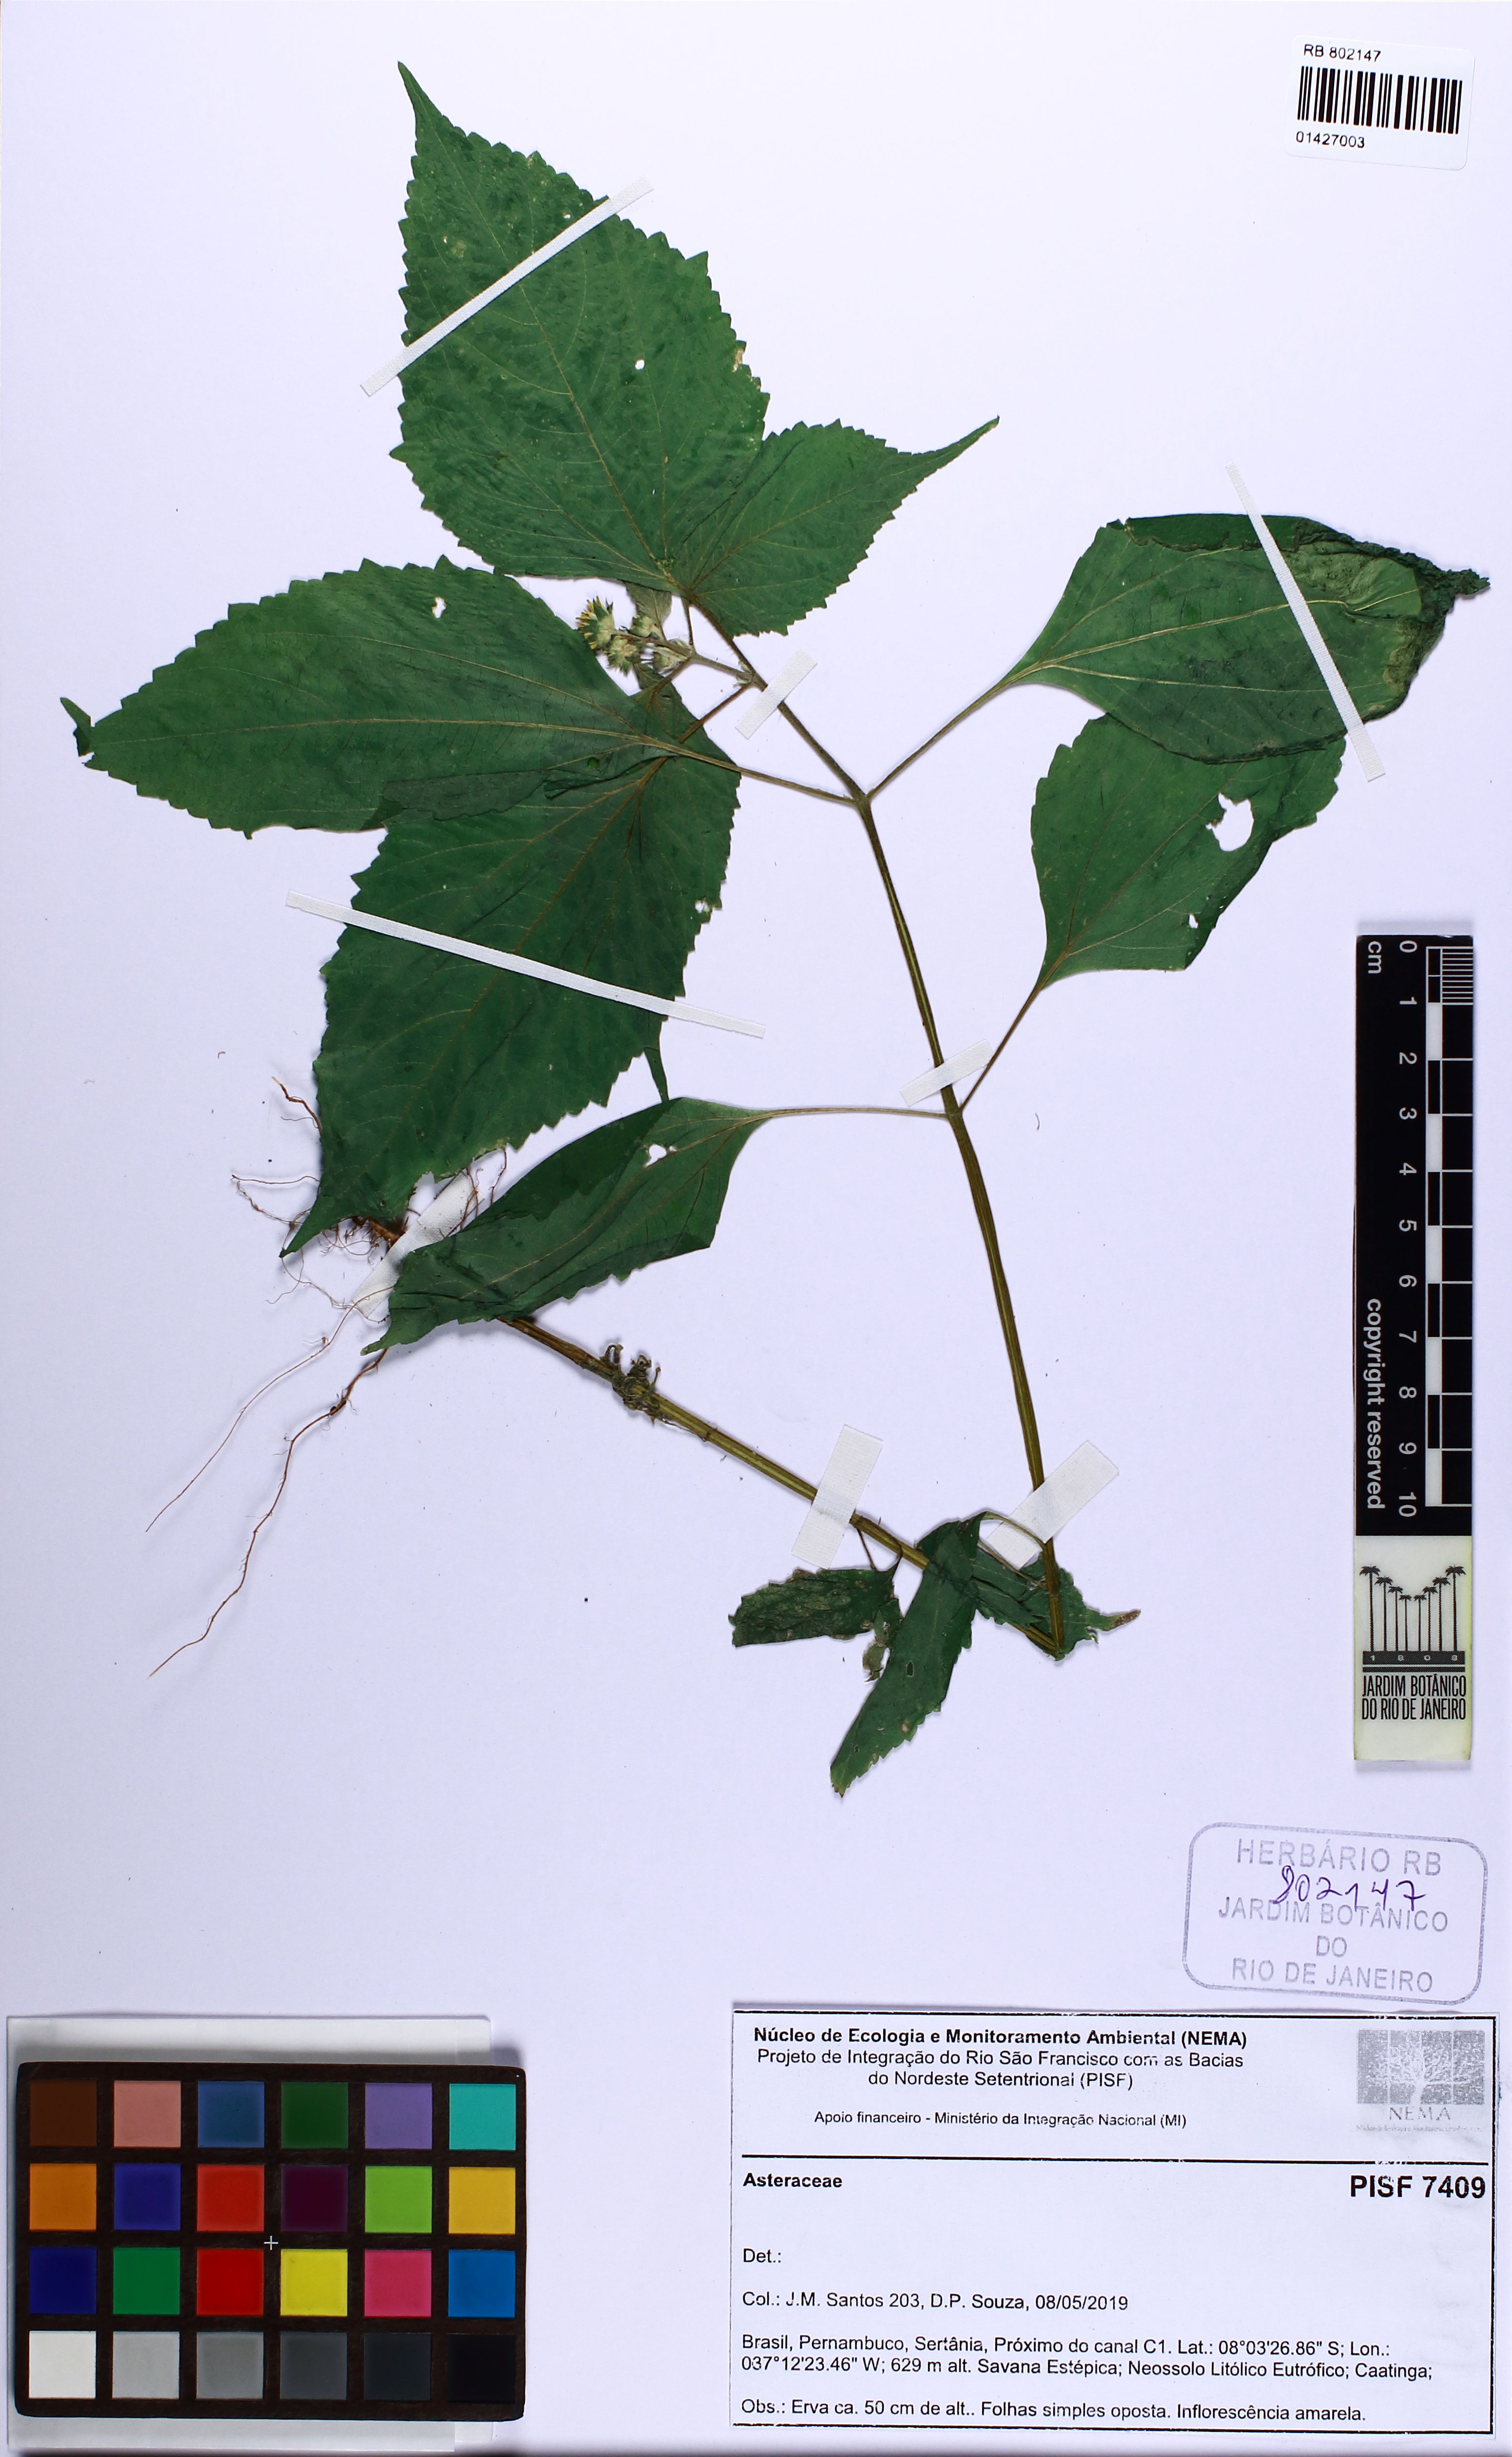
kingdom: Plantae
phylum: Tracheophyta
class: Magnoliopsida
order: Asterales
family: Asteraceae
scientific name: Asteraceae
